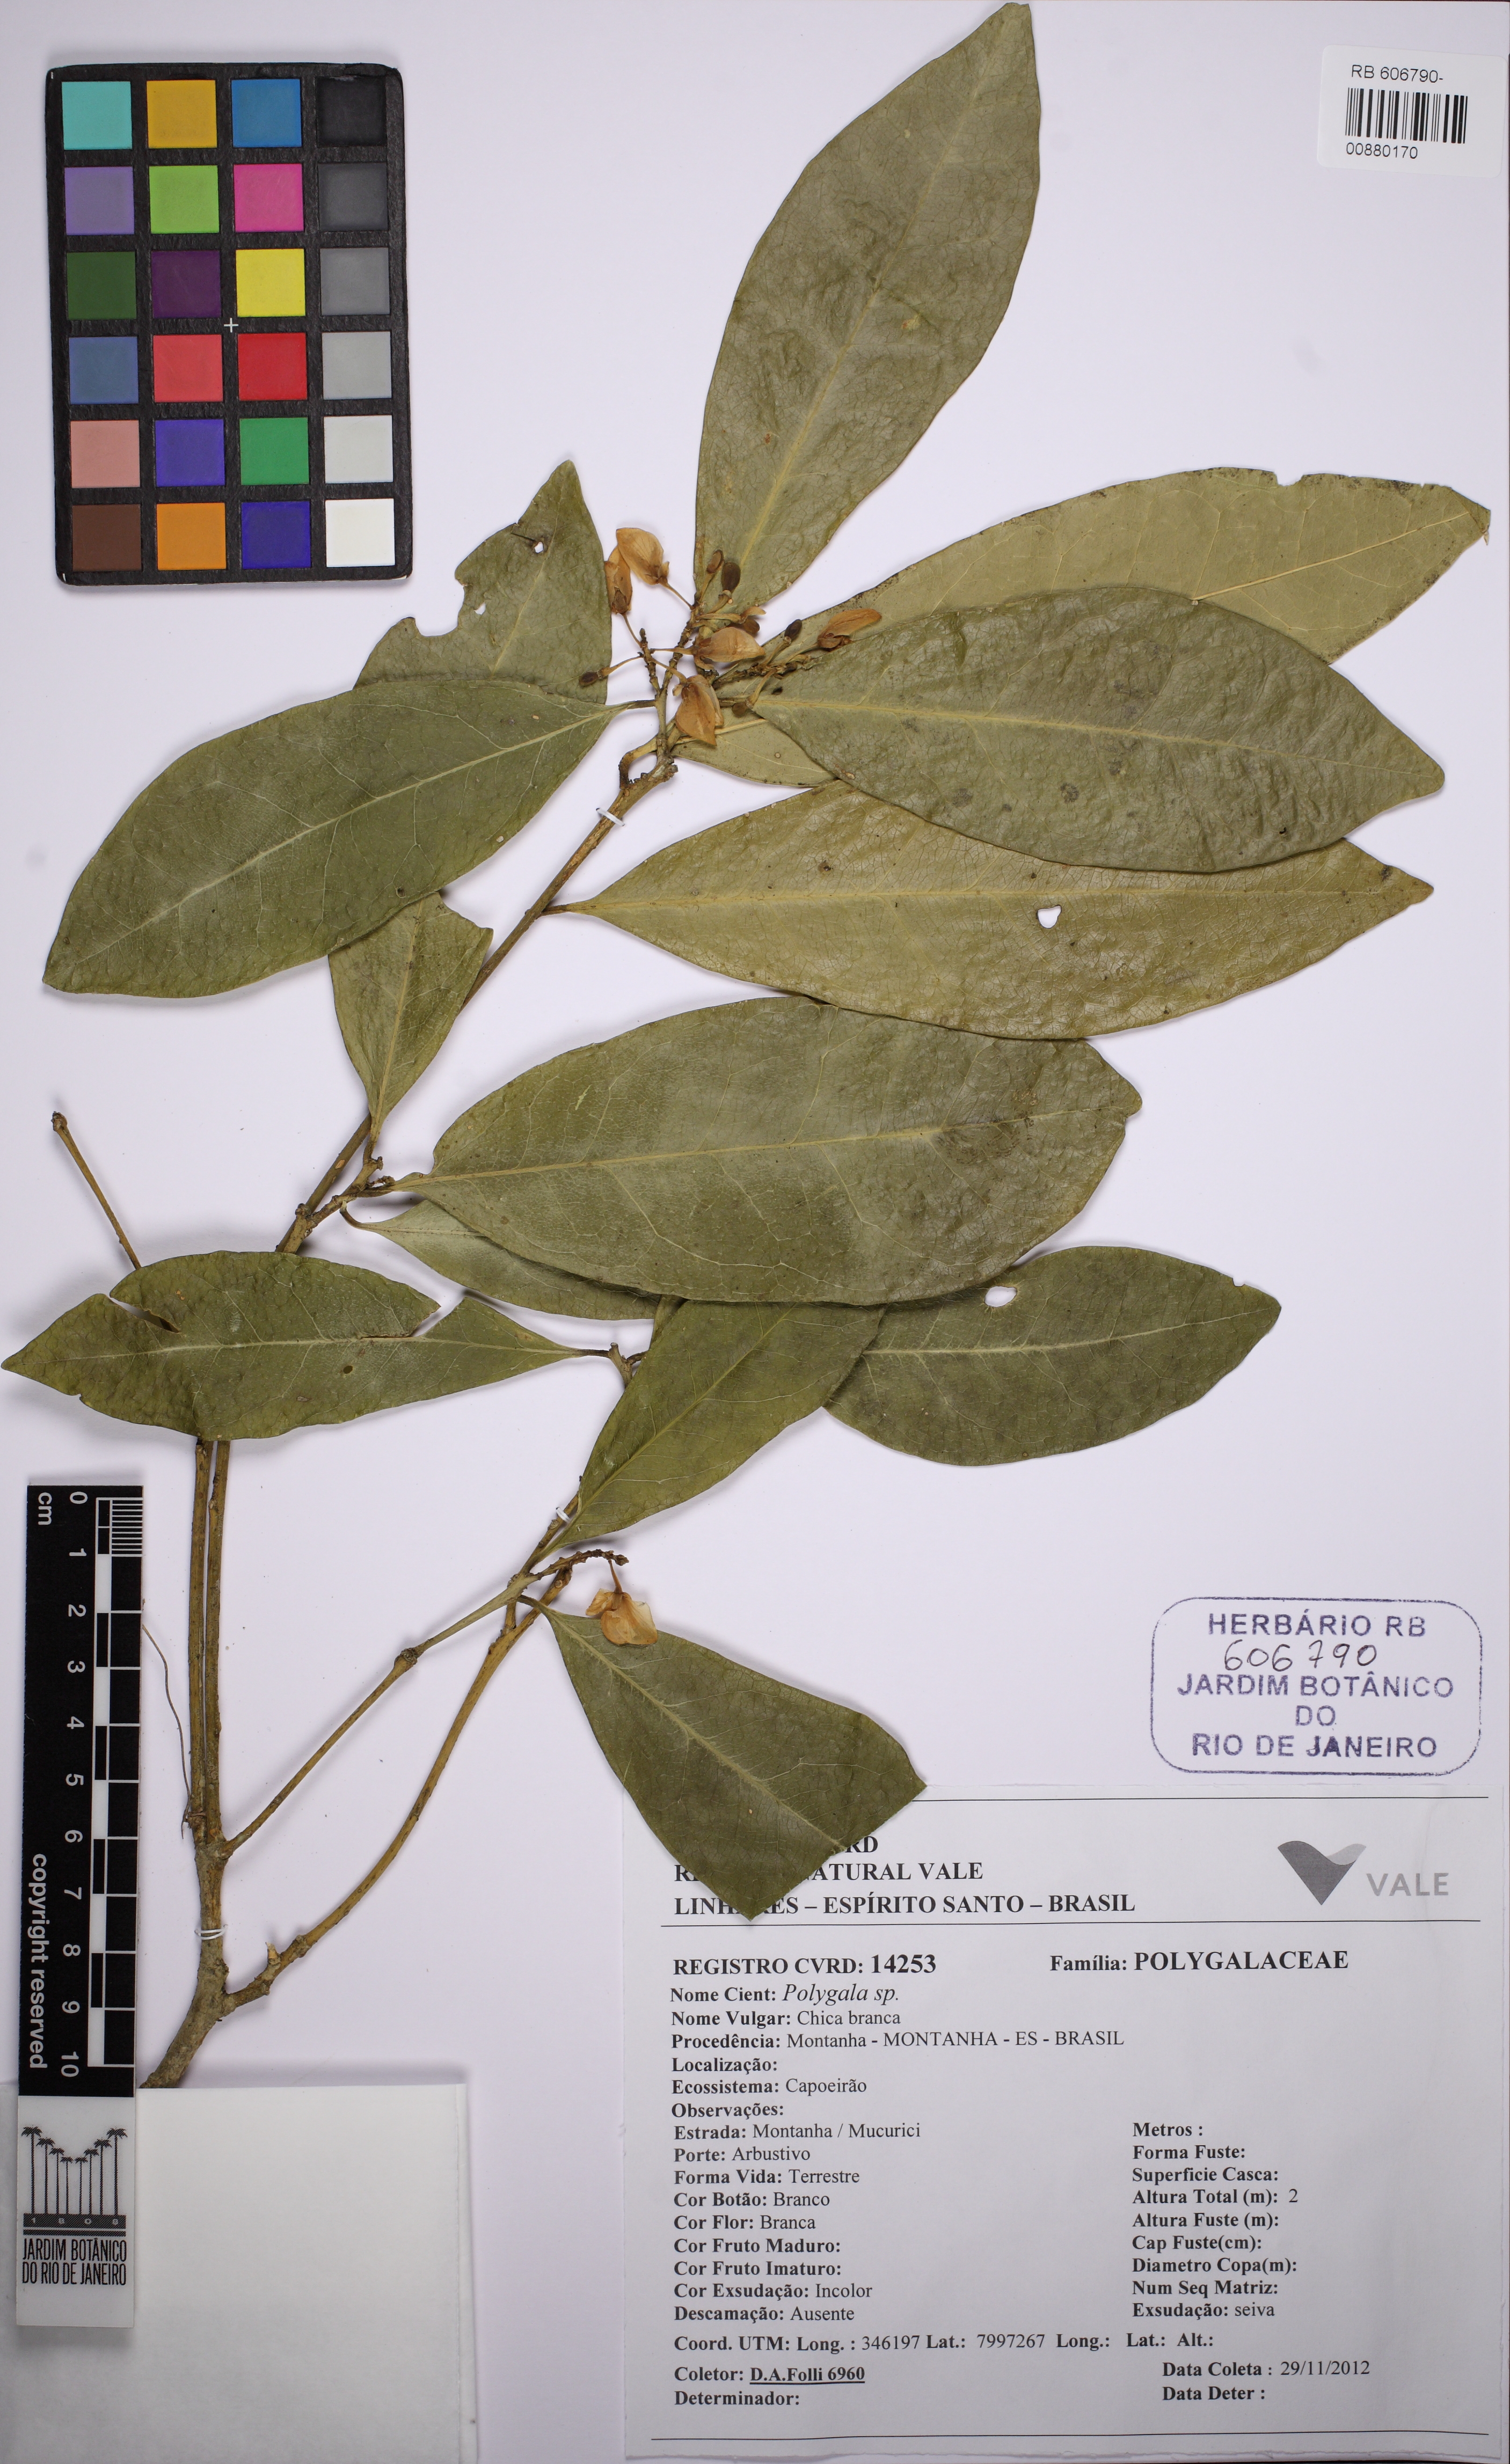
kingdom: Plantae
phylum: Tracheophyta
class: Magnoliopsida
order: Fabales
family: Polygalaceae
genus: Acanthocladus
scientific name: Acanthocladus santosii
